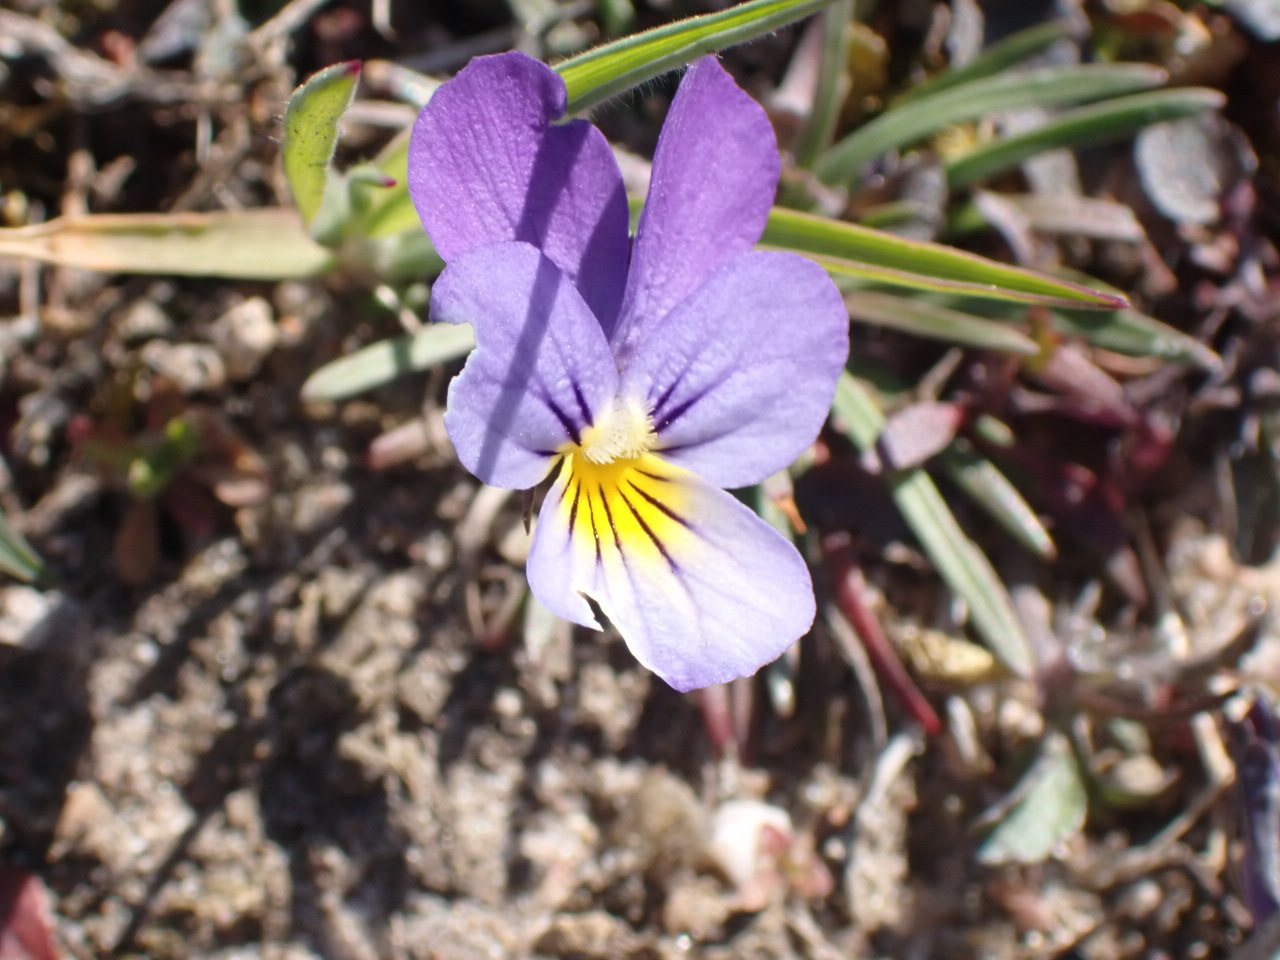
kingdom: Plantae
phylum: Tracheophyta
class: Magnoliopsida
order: Malpighiales
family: Violaceae
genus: Viola
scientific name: Viola tricolor
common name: Stedmoderblomst
